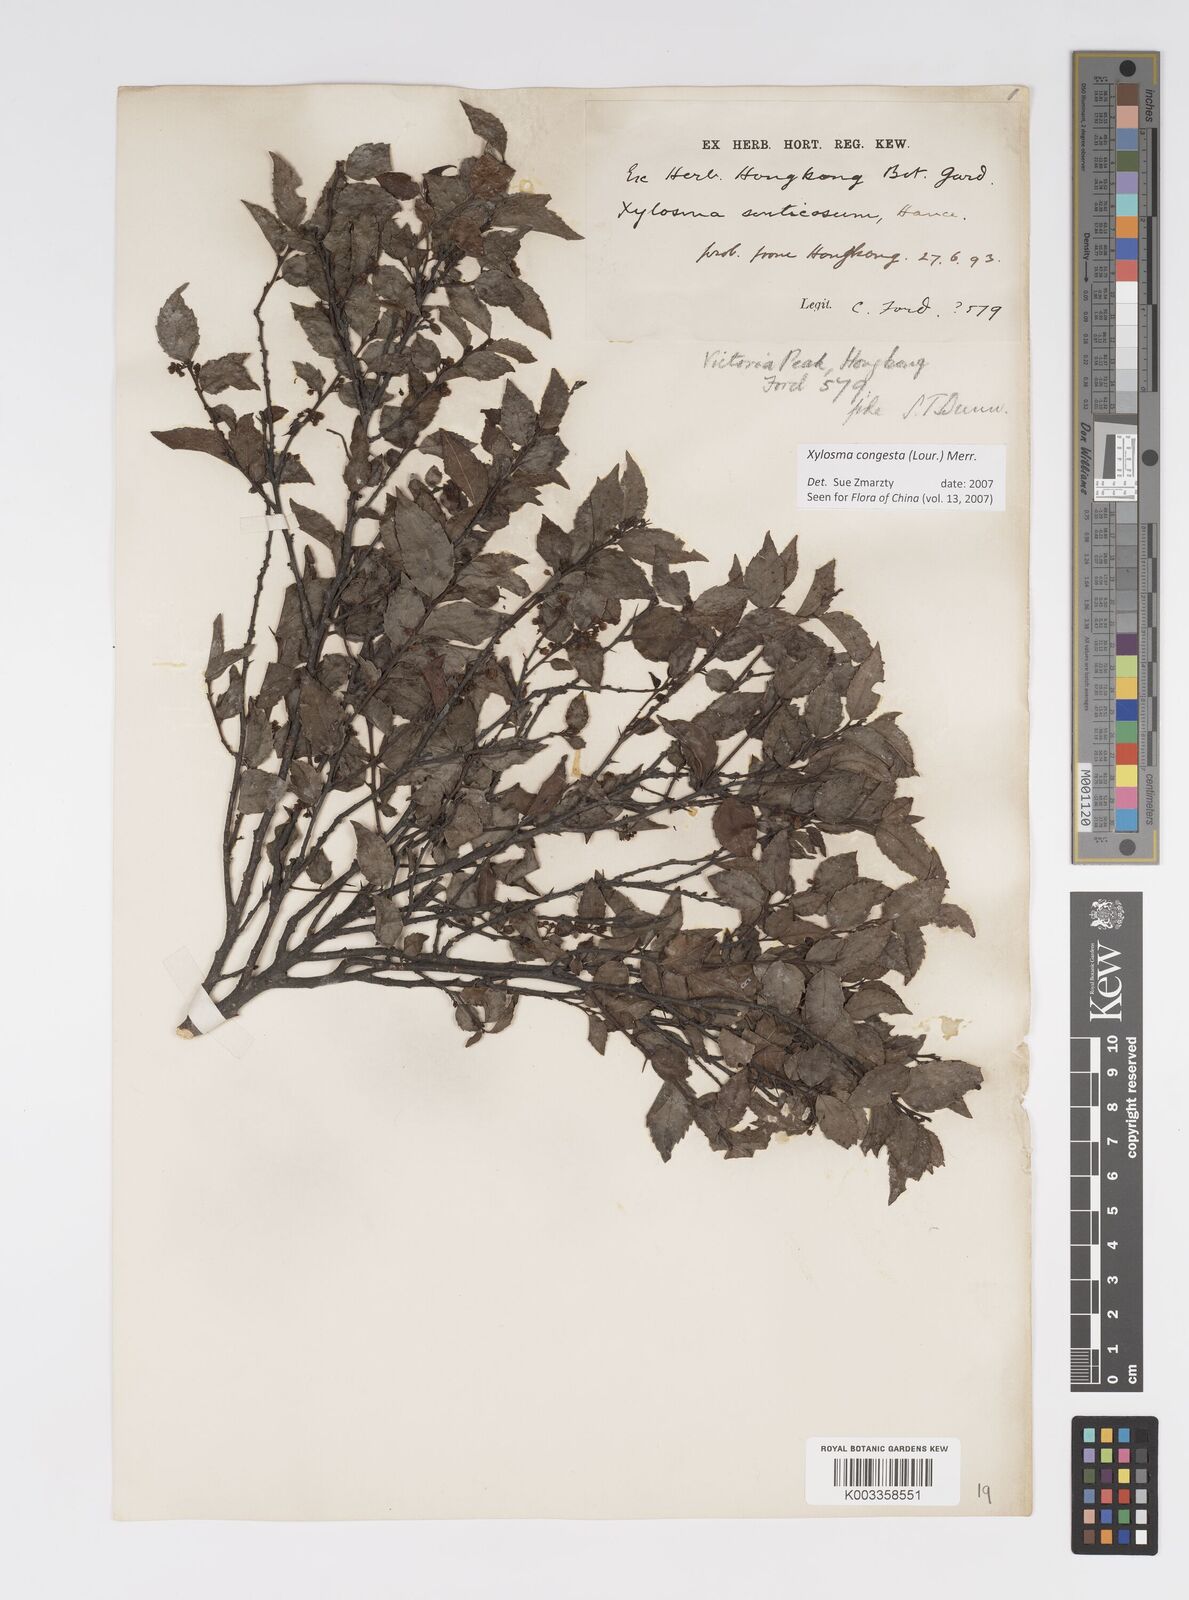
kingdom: Plantae
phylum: Tracheophyta
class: Magnoliopsida
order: Malpighiales
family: Salicaceae
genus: Xylosma
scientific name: Xylosma racemosum
